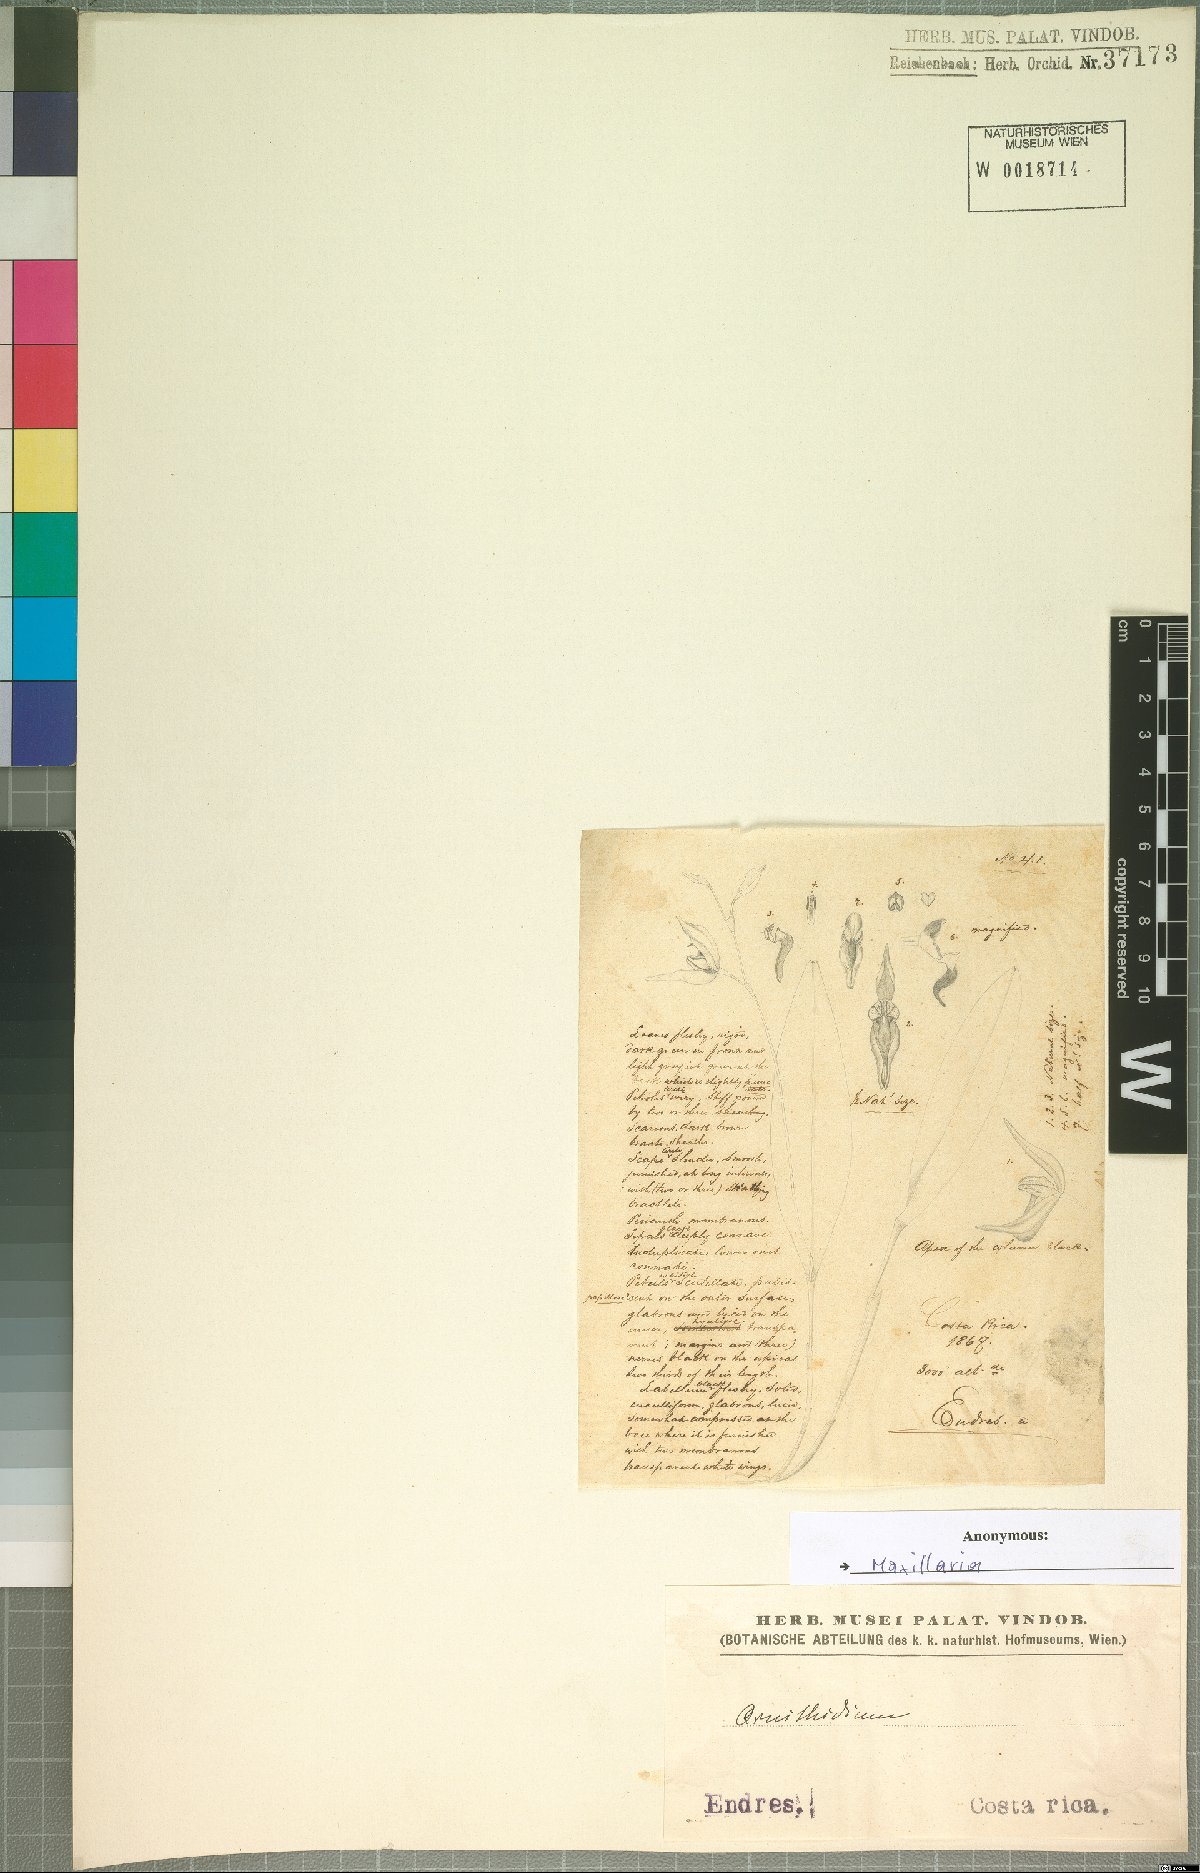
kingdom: Plantae
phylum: Tracheophyta
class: Liliopsida
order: Asparagales
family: Orchidaceae
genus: Pleurothallis
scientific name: Pleurothallis
